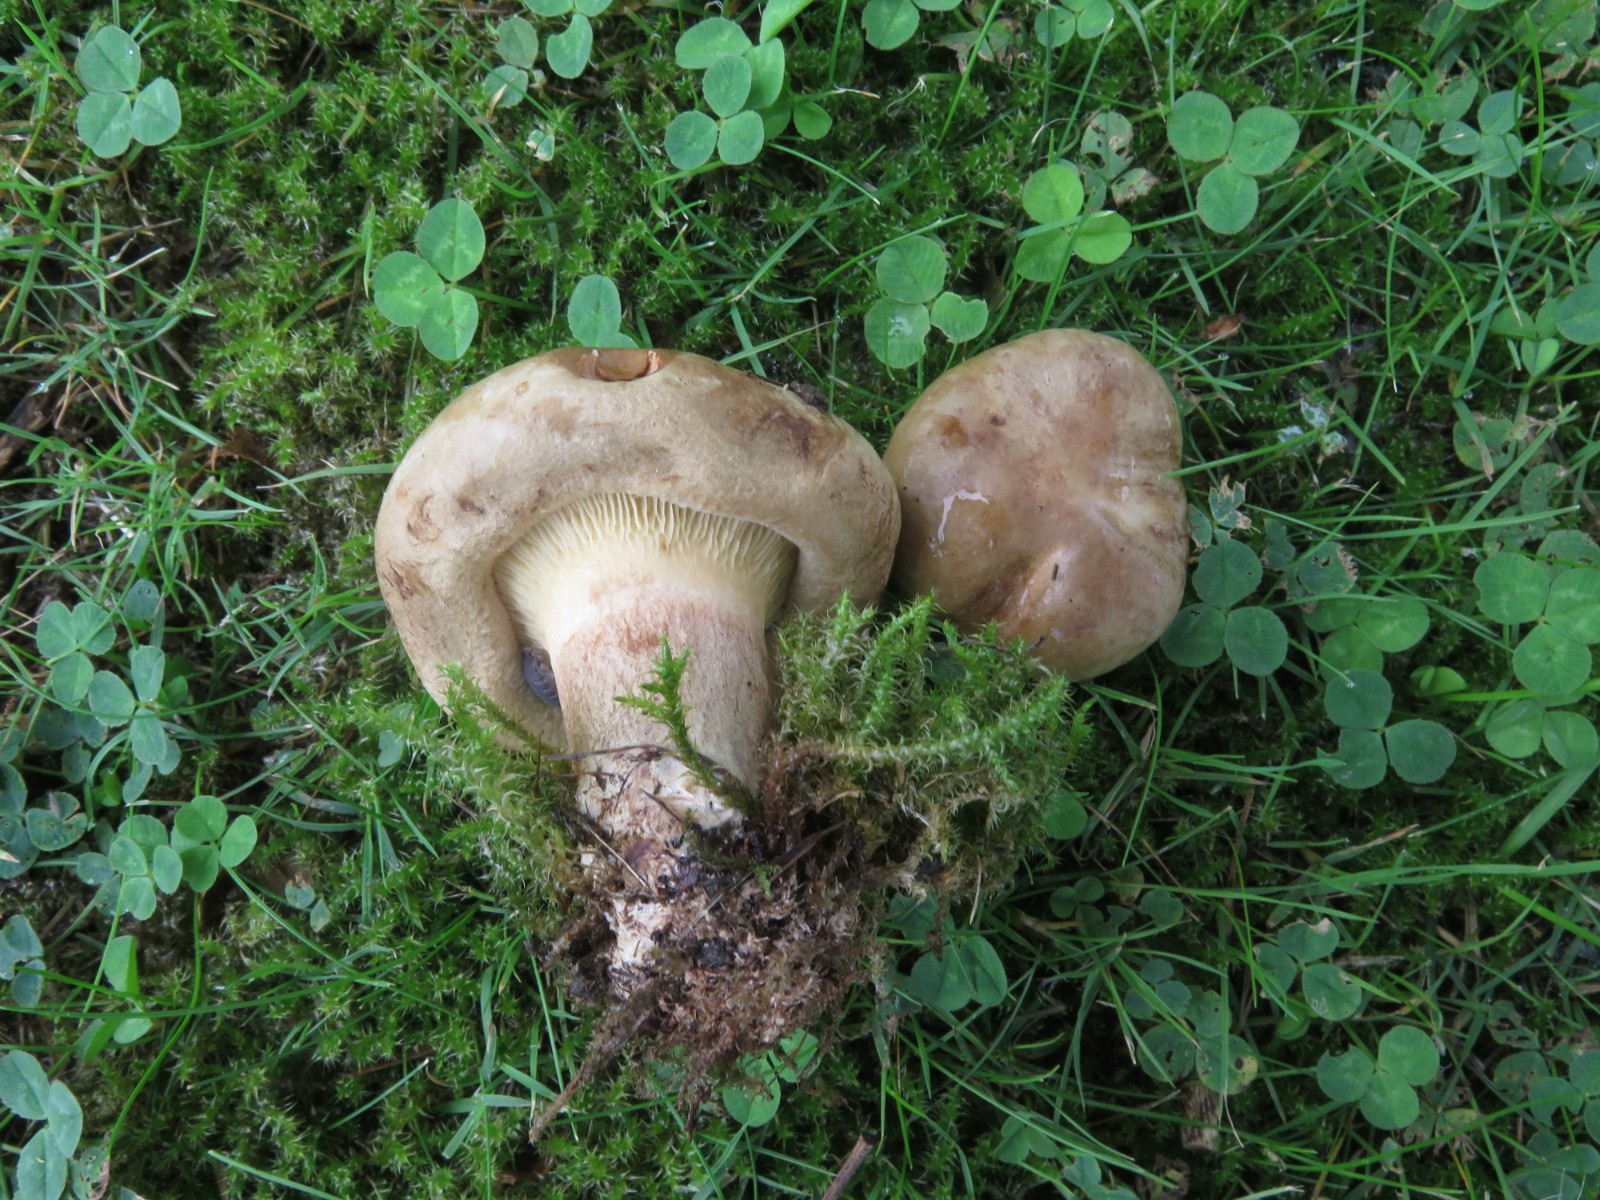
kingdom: Fungi
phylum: Basidiomycota
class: Agaricomycetes
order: Boletales
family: Paxillaceae
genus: Paxillus
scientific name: Paxillus obscurisporus
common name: mahognisporet netbladhat
